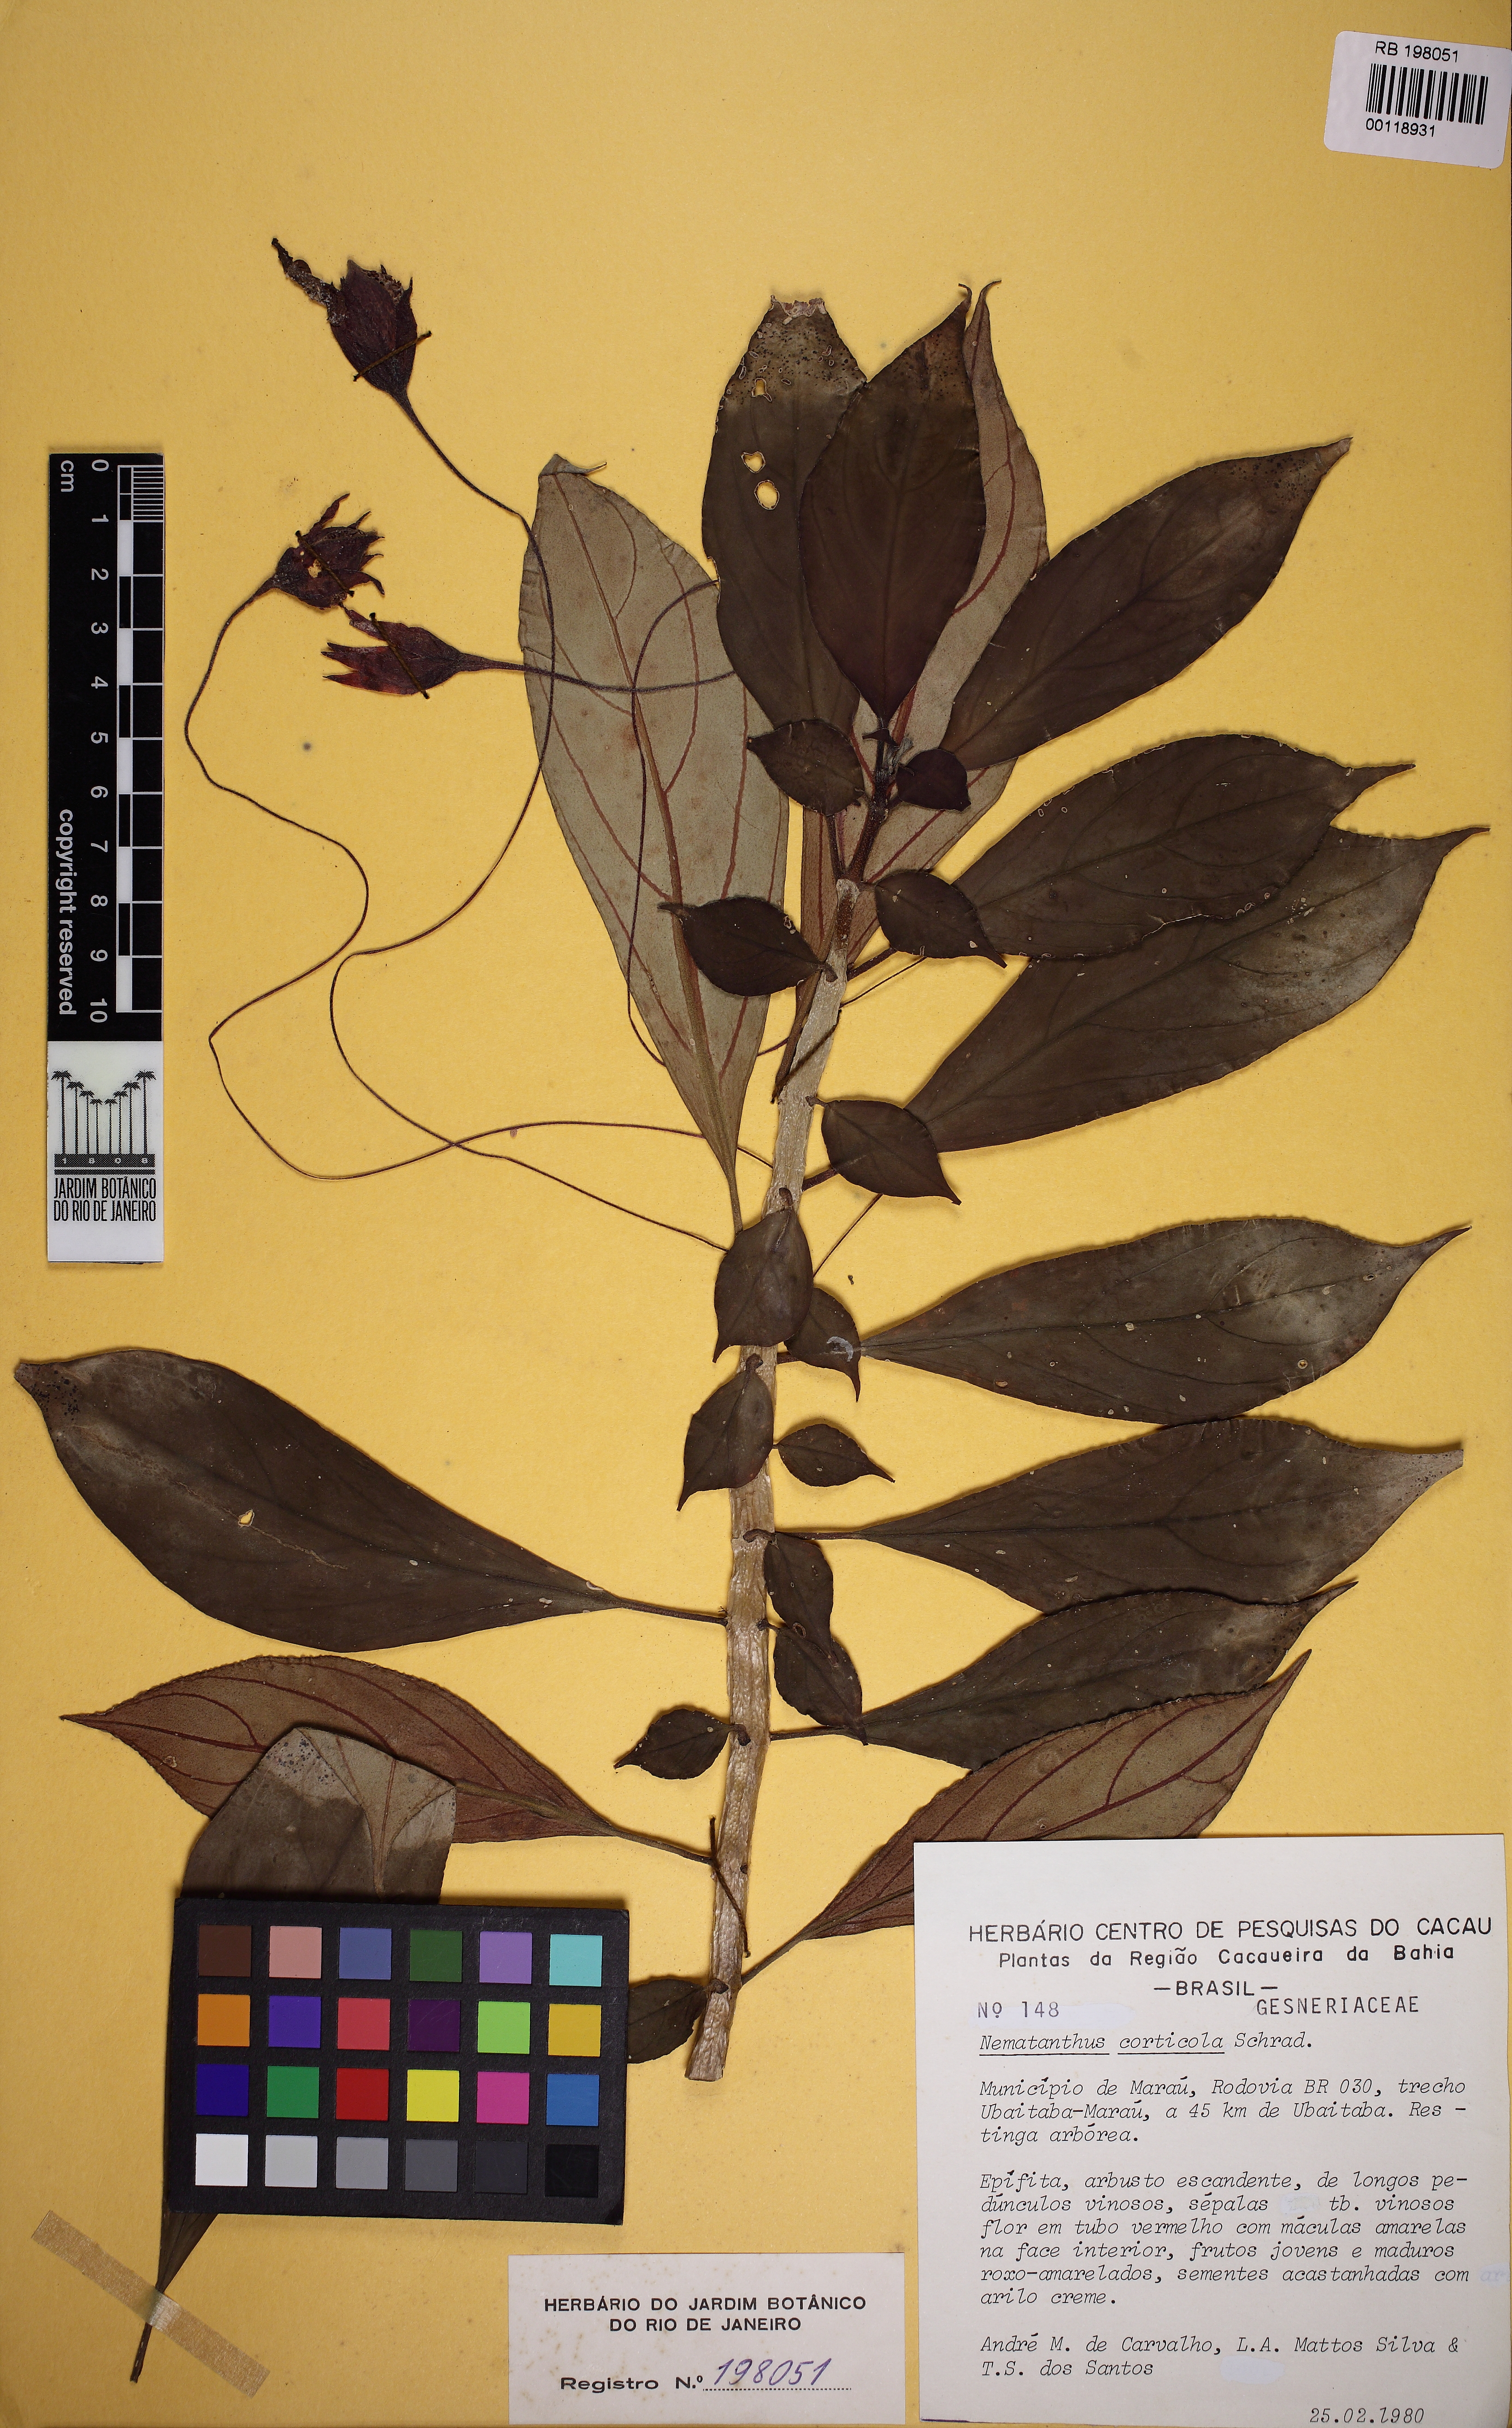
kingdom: Plantae
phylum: Tracheophyta
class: Magnoliopsida
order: Lamiales
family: Gesneriaceae
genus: Nematanthus
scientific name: Nematanthus corticola
